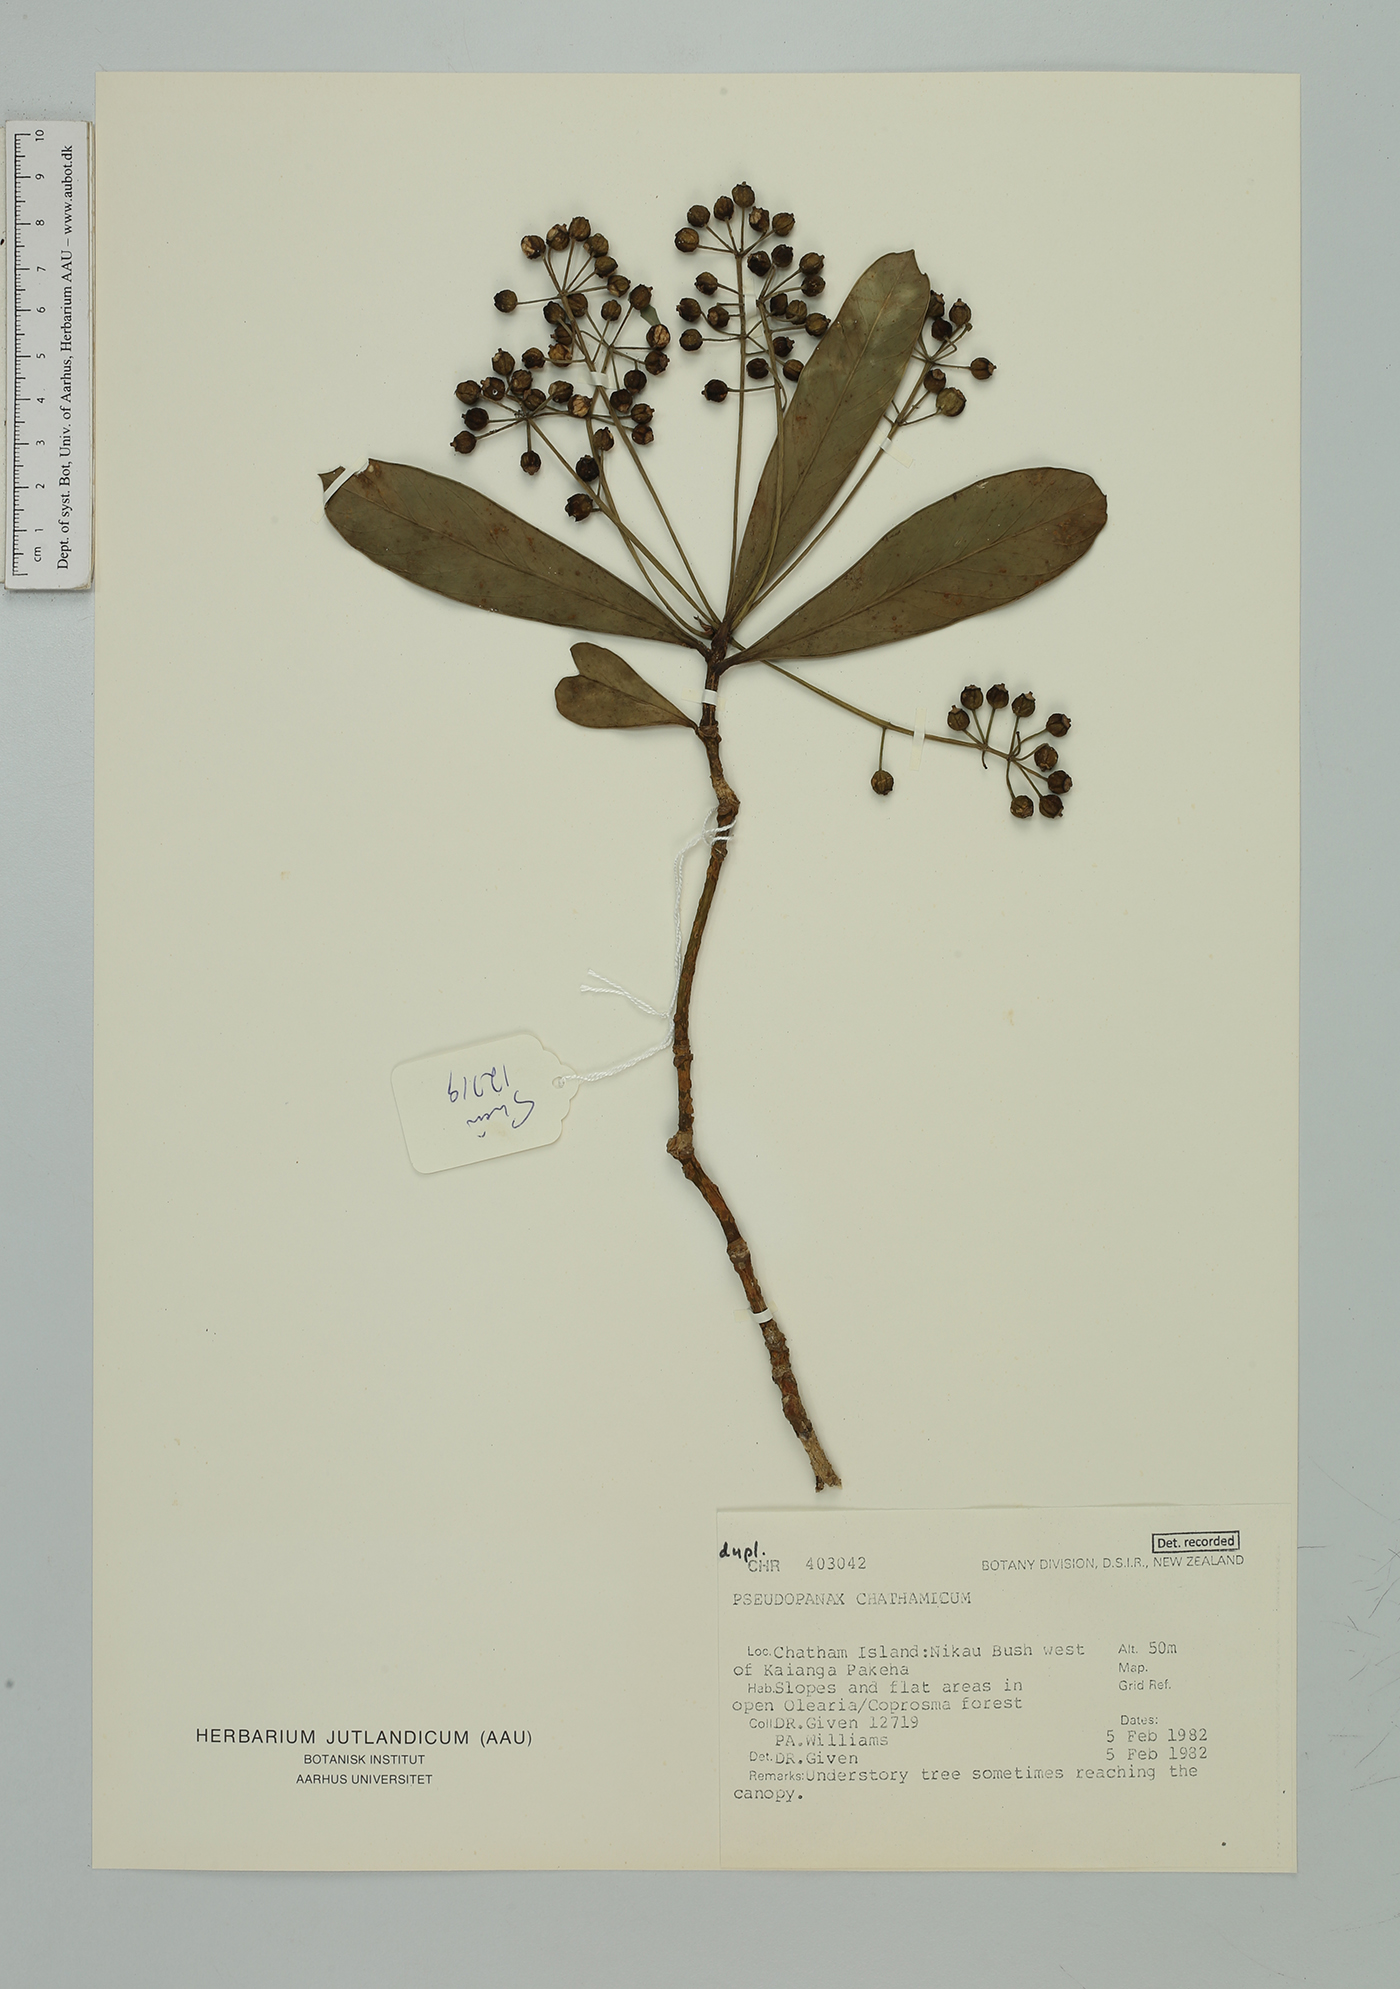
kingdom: Plantae
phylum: Tracheophyta
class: Magnoliopsida
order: Apiales
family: Araliaceae
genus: Pseudopanax
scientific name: Pseudopanax chathamicus
